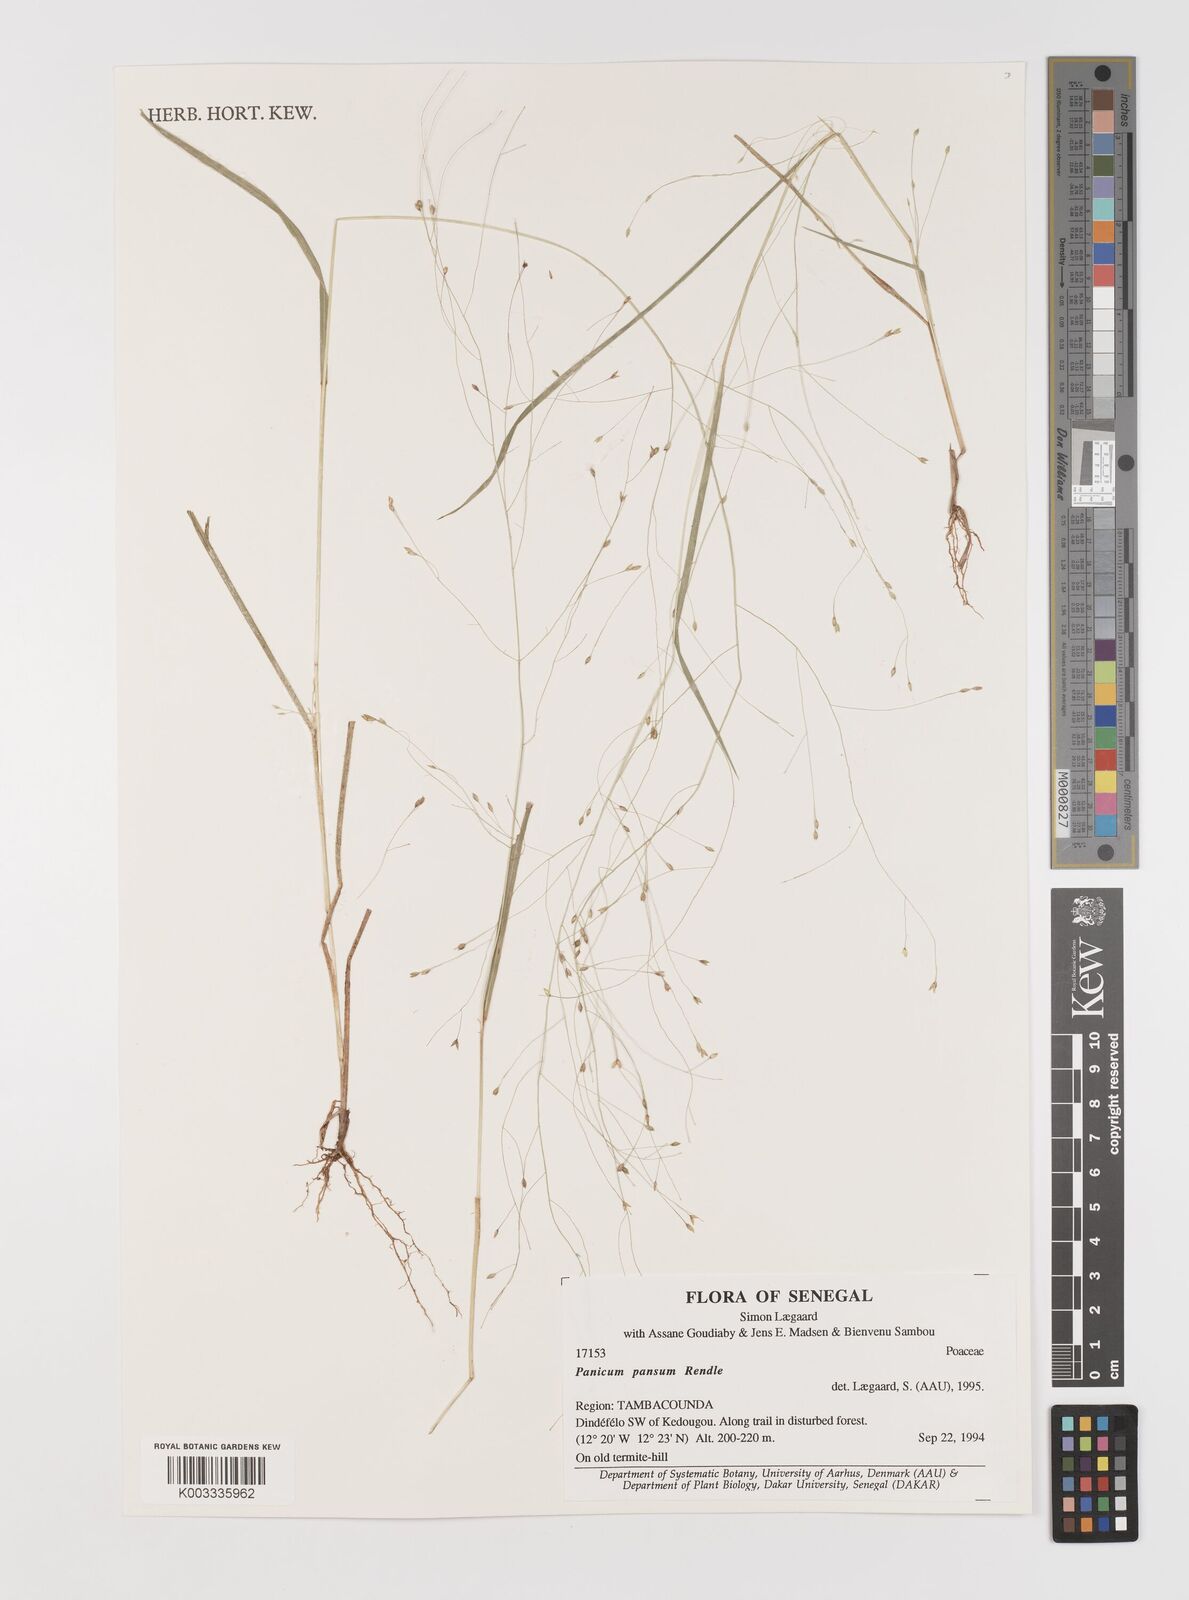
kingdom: Plantae
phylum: Tracheophyta
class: Liliopsida
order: Poales
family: Poaceae
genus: Panicum
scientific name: Panicum pansum
